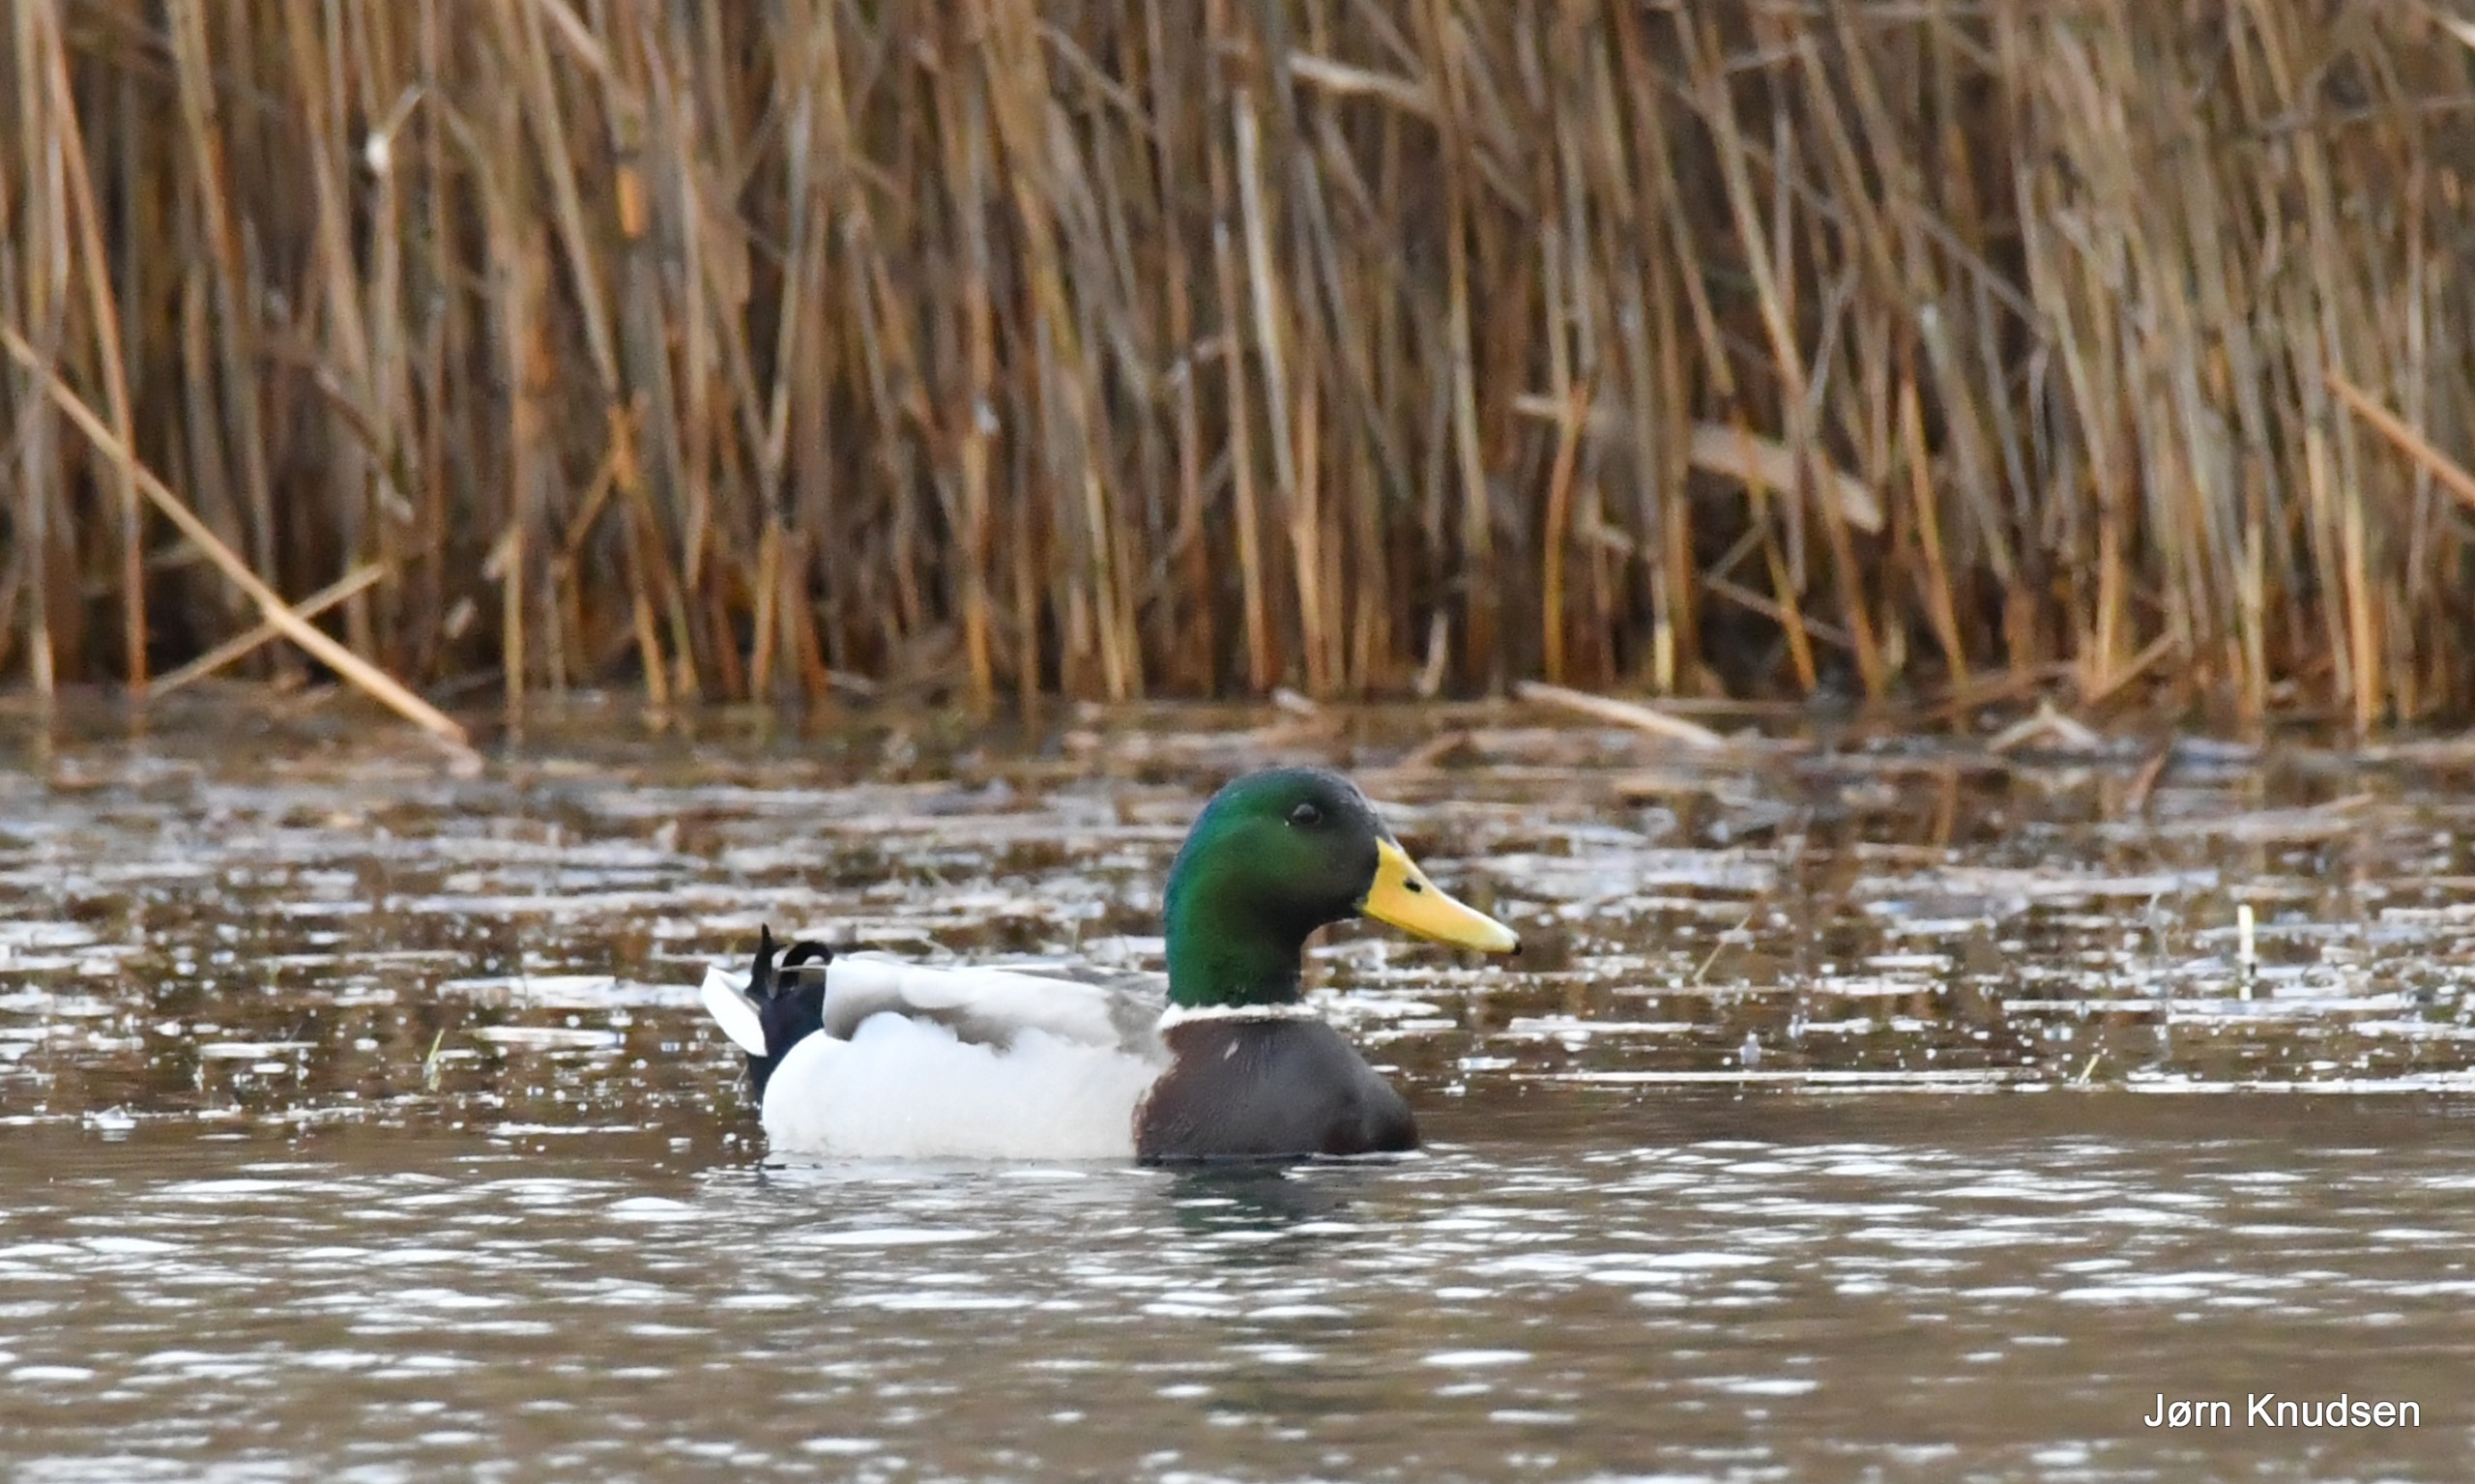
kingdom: Animalia
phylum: Chordata
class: Aves
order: Anseriformes
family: Anatidae
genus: Anas
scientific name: Anas platyrhynchos
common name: Gråand
